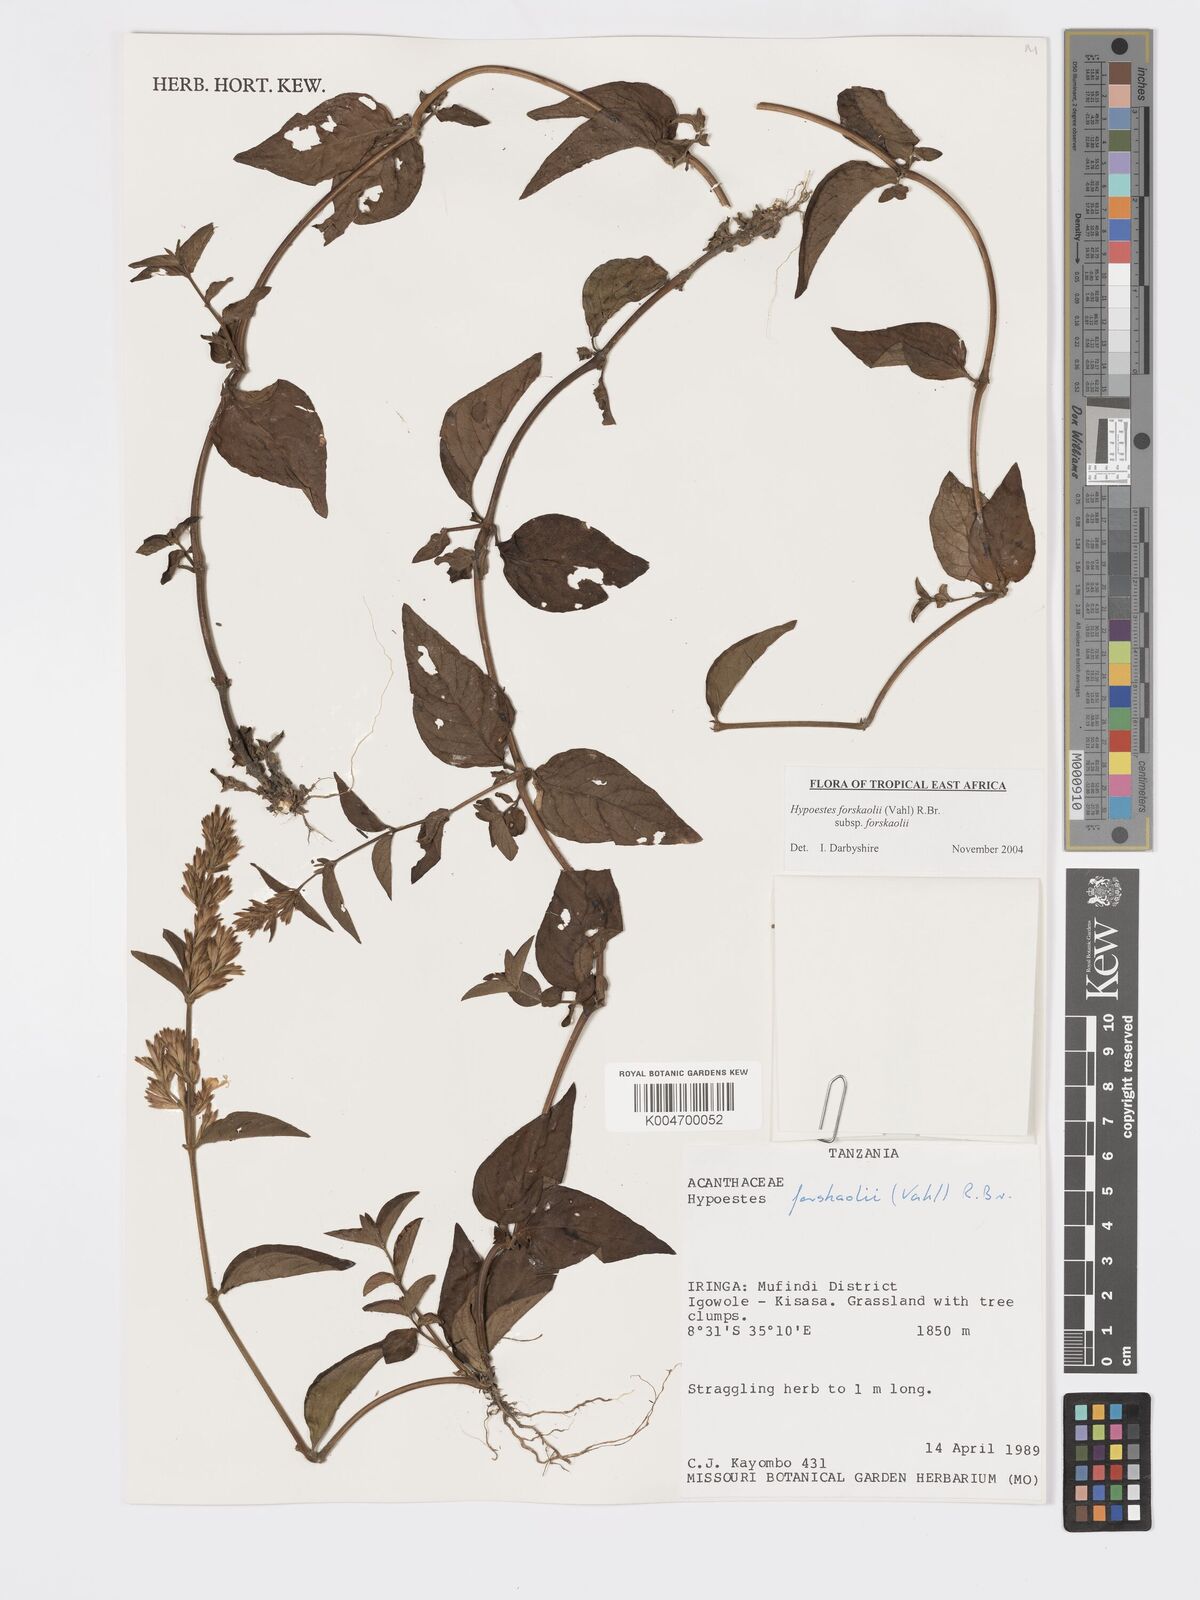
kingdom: Plantae
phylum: Tracheophyta
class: Magnoliopsida
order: Lamiales
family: Acanthaceae
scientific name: Acanthaceae
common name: Acanthaceae
